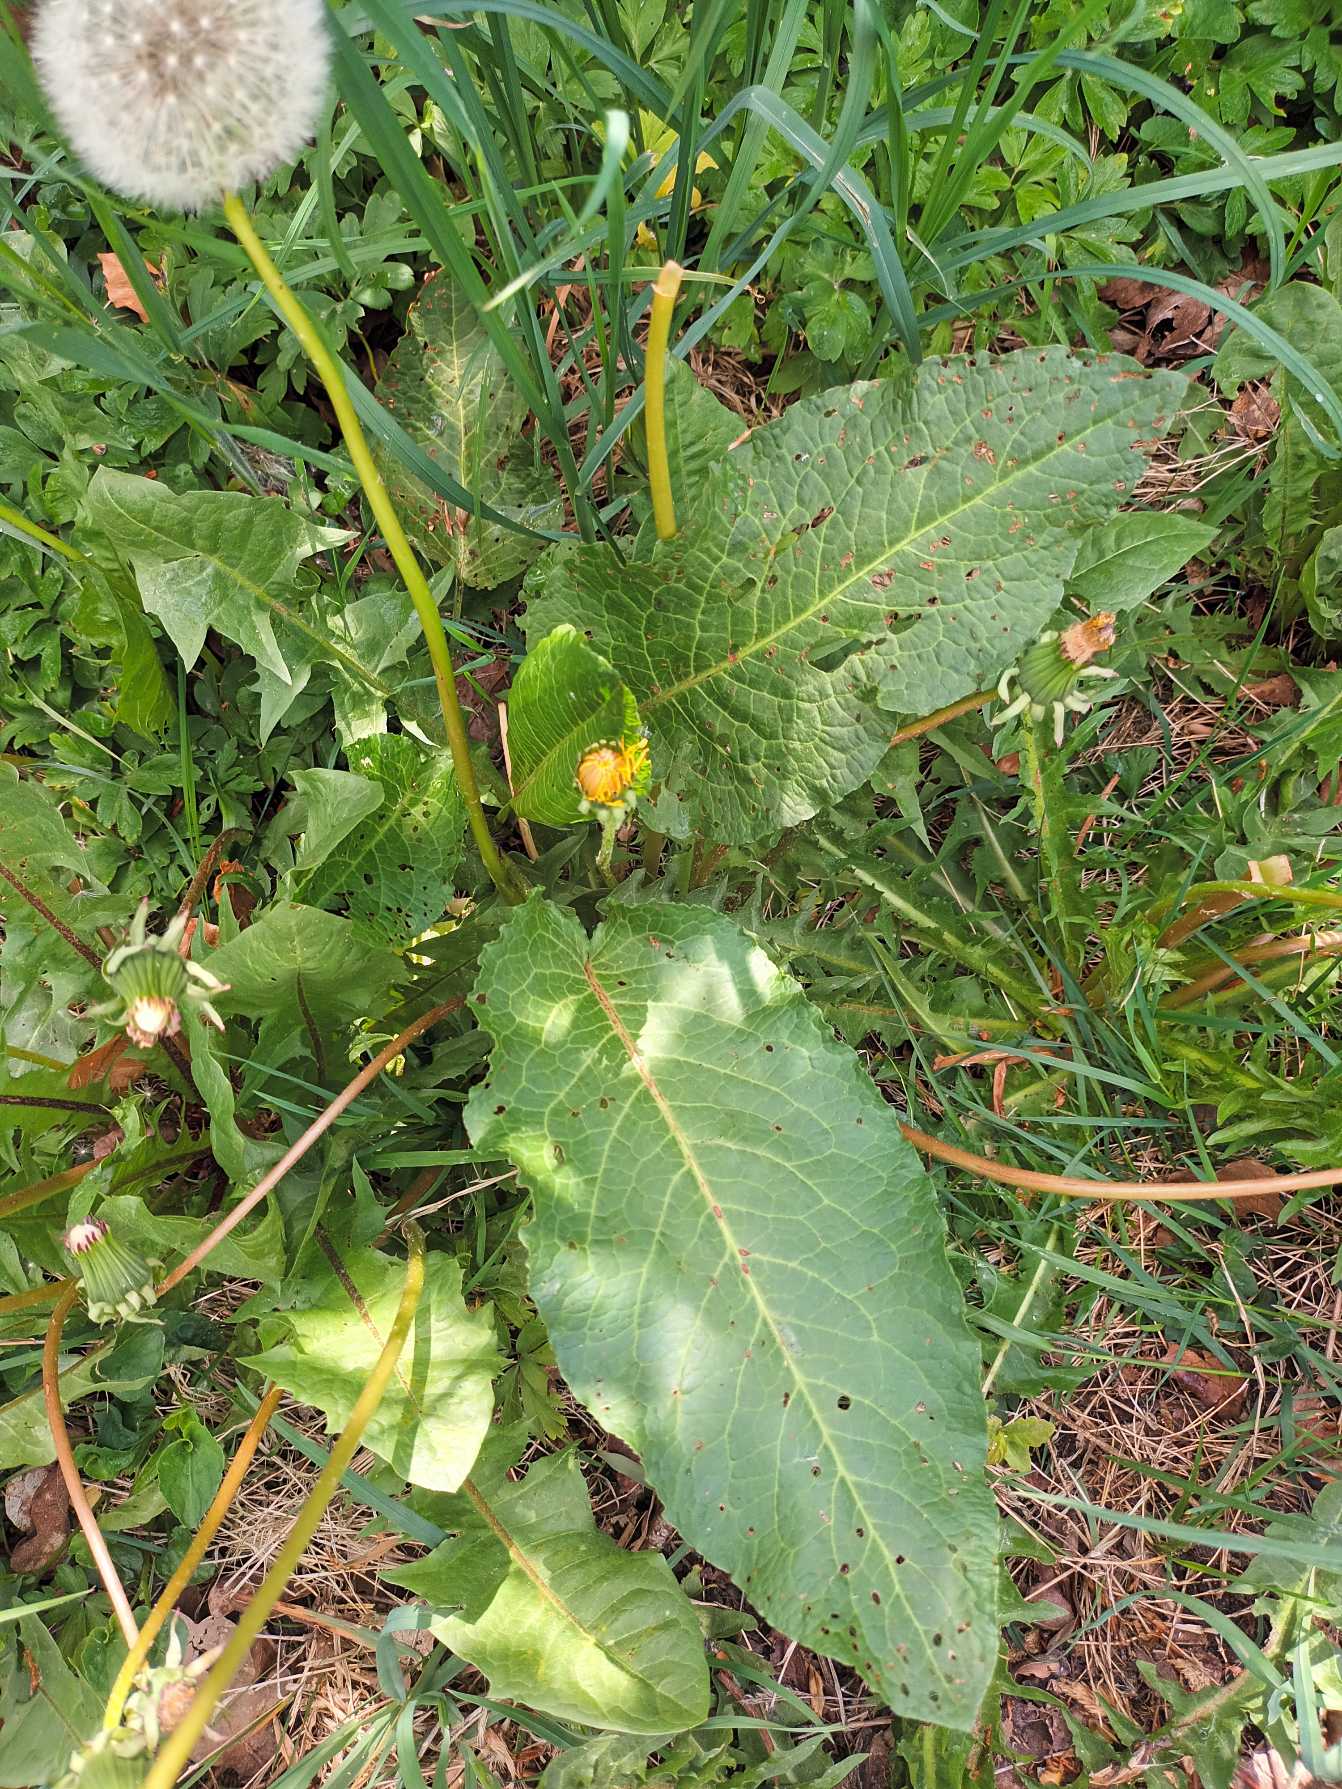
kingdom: Plantae
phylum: Tracheophyta
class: Magnoliopsida
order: Caryophyllales
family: Polygonaceae
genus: Rumex
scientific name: Rumex obtusifolius
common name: Butbladet skræppe
